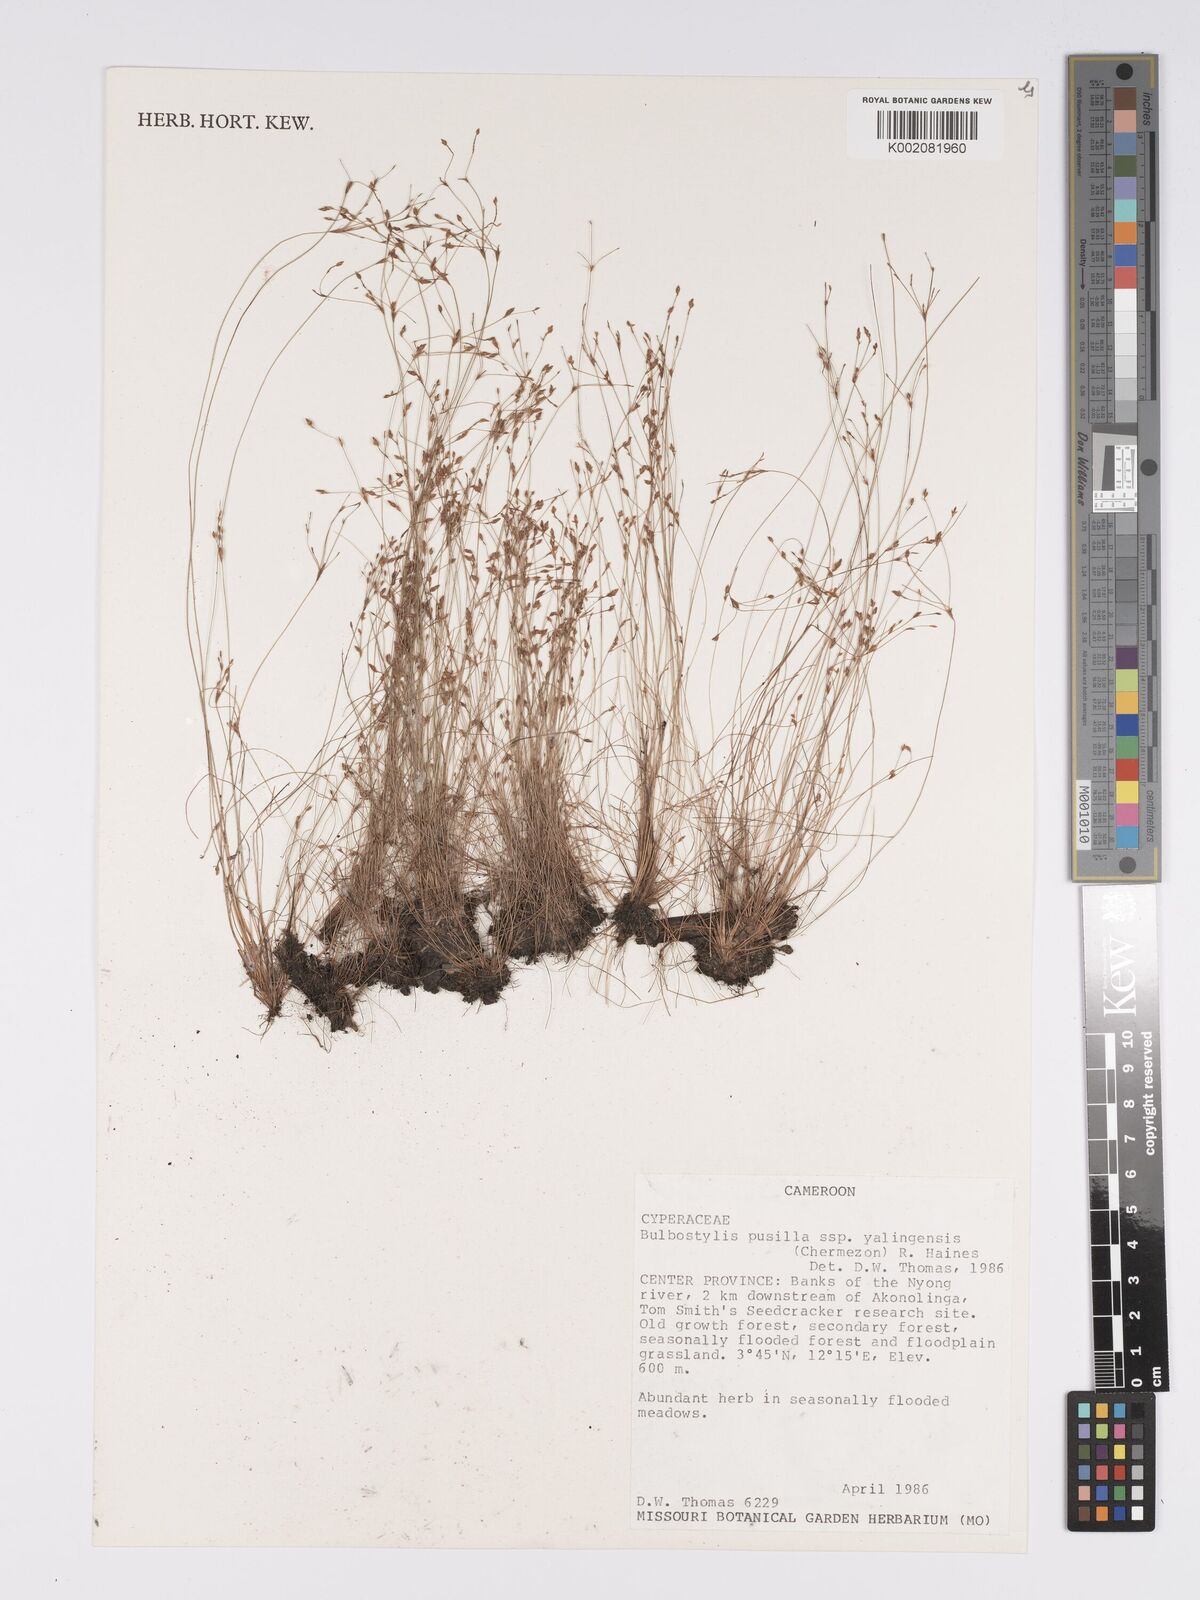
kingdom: Plantae
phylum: Tracheophyta
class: Liliopsida
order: Poales
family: Cyperaceae
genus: Bulbostylis
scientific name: Bulbostylis pusilla
